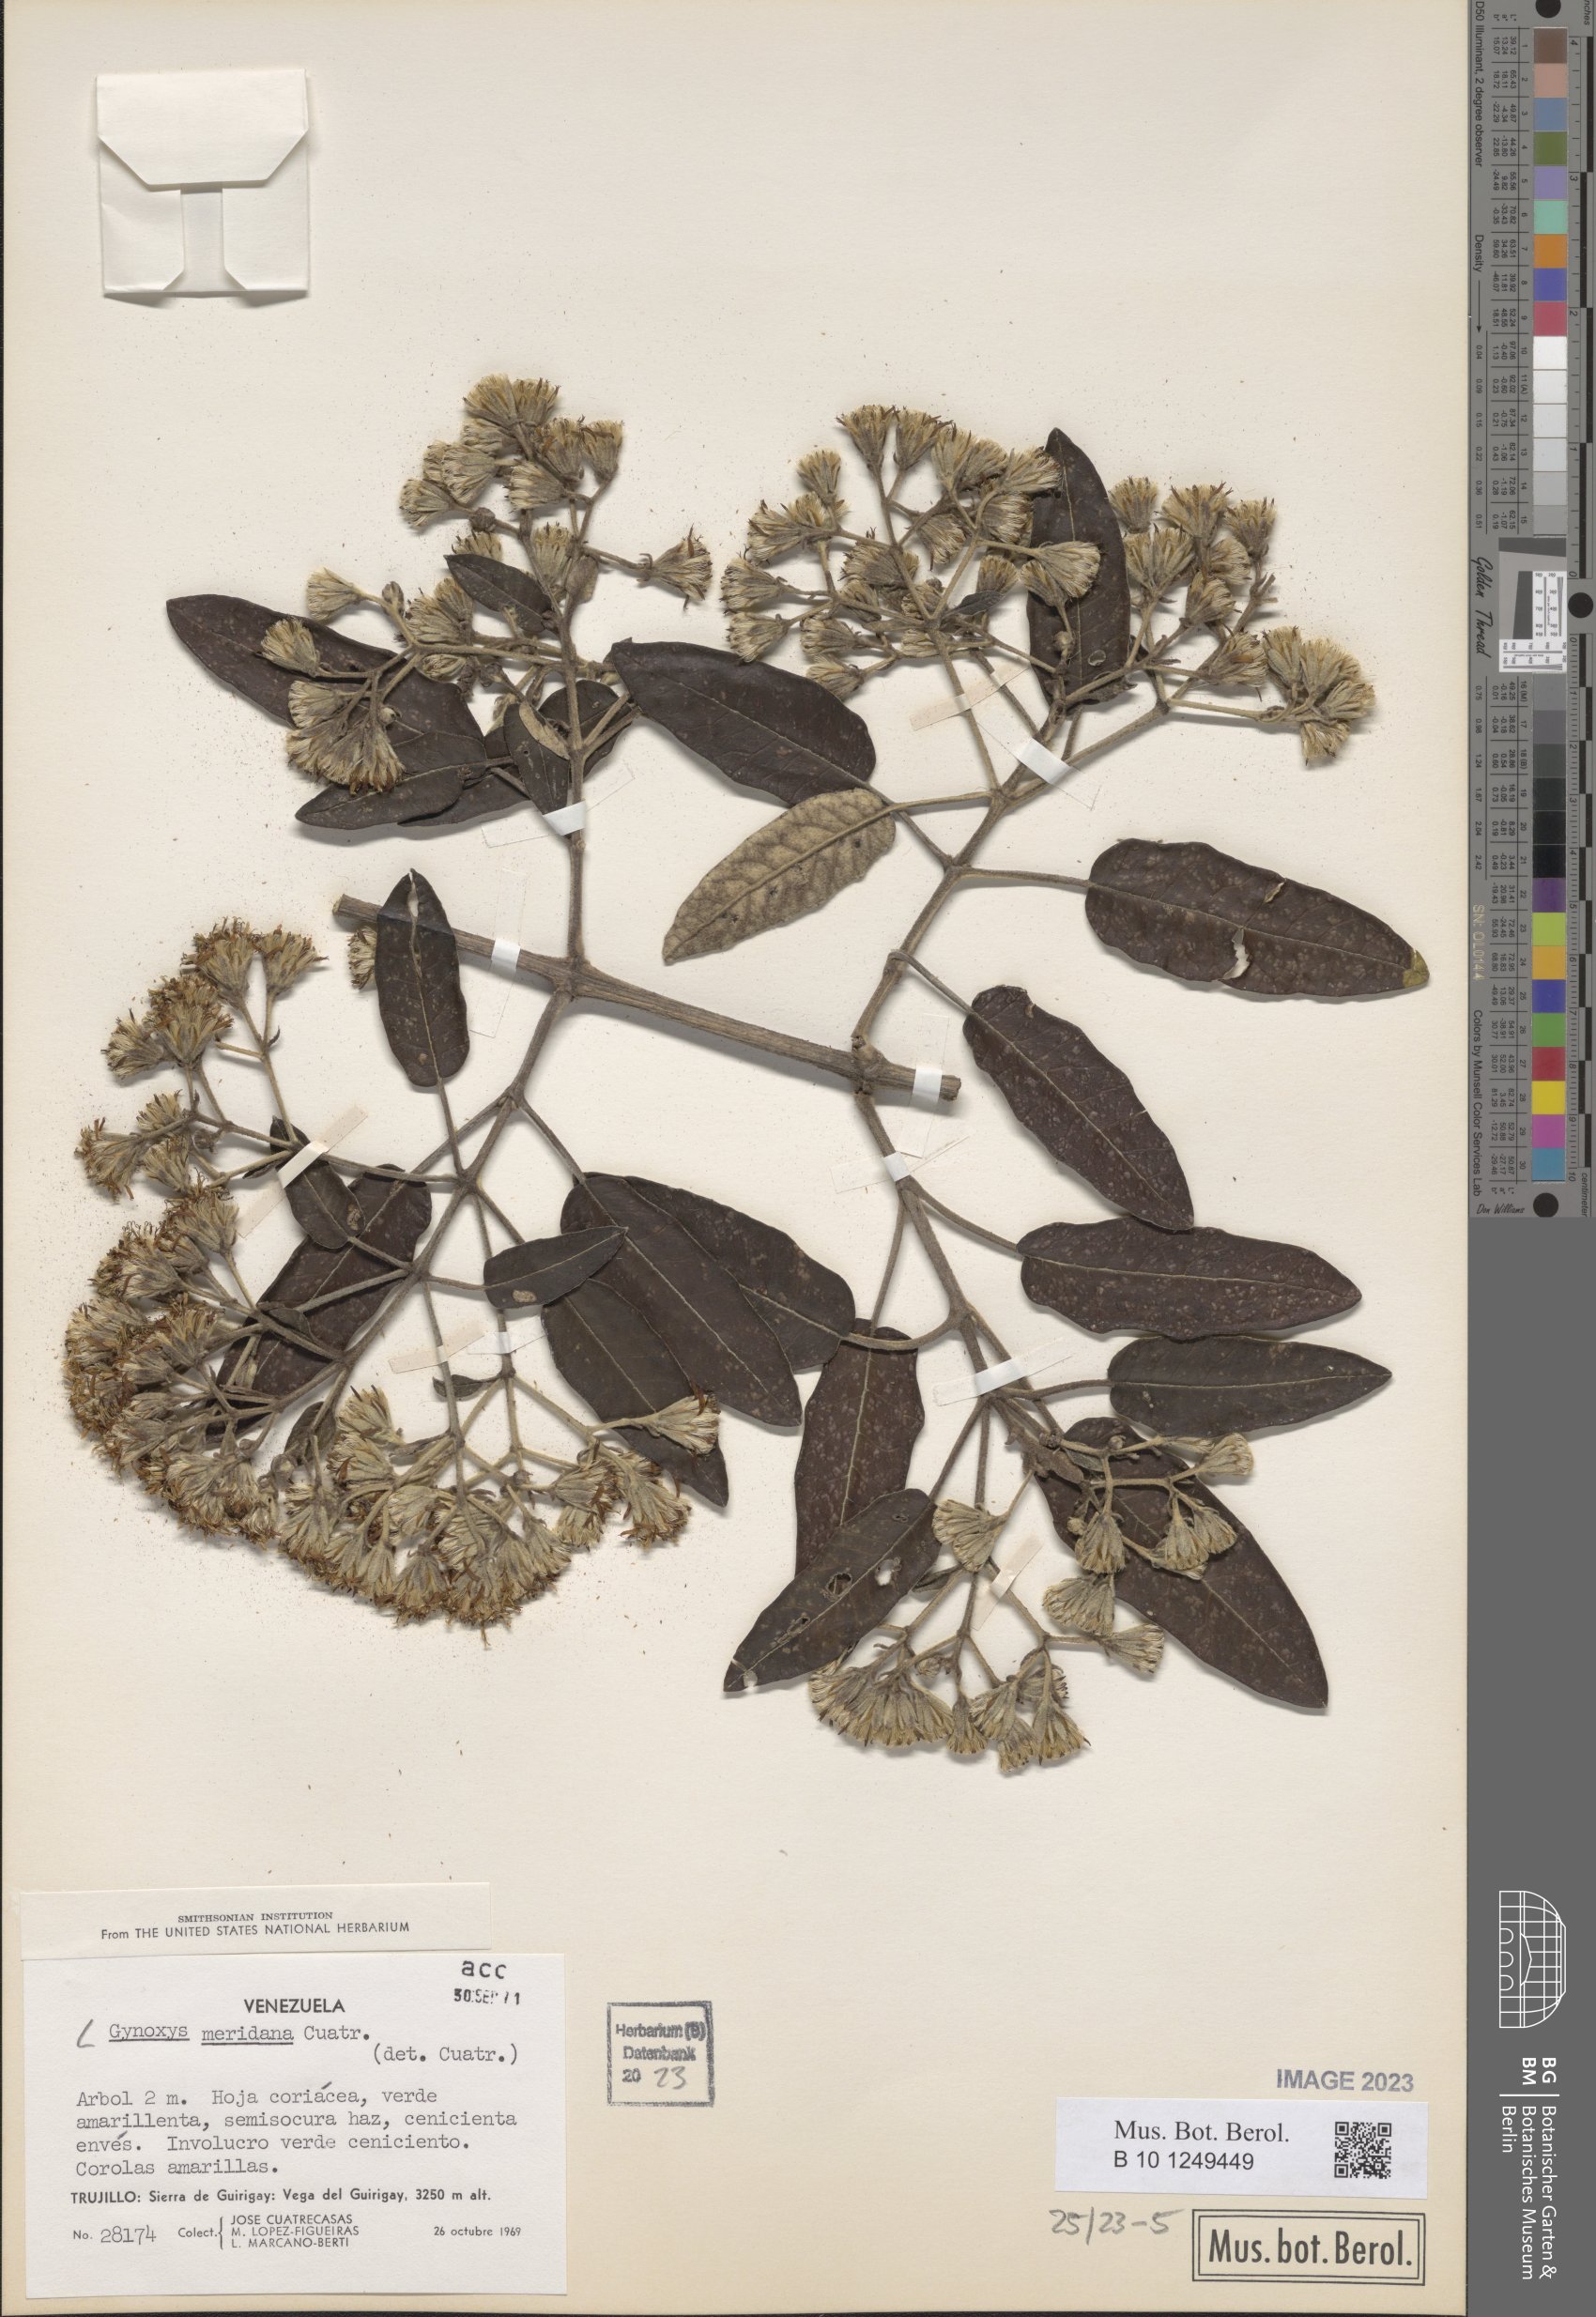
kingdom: Plantae
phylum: Tracheophyta
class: Magnoliopsida
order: Asterales
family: Asteraceae
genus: Gynoxys
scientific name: Gynoxys meridana
